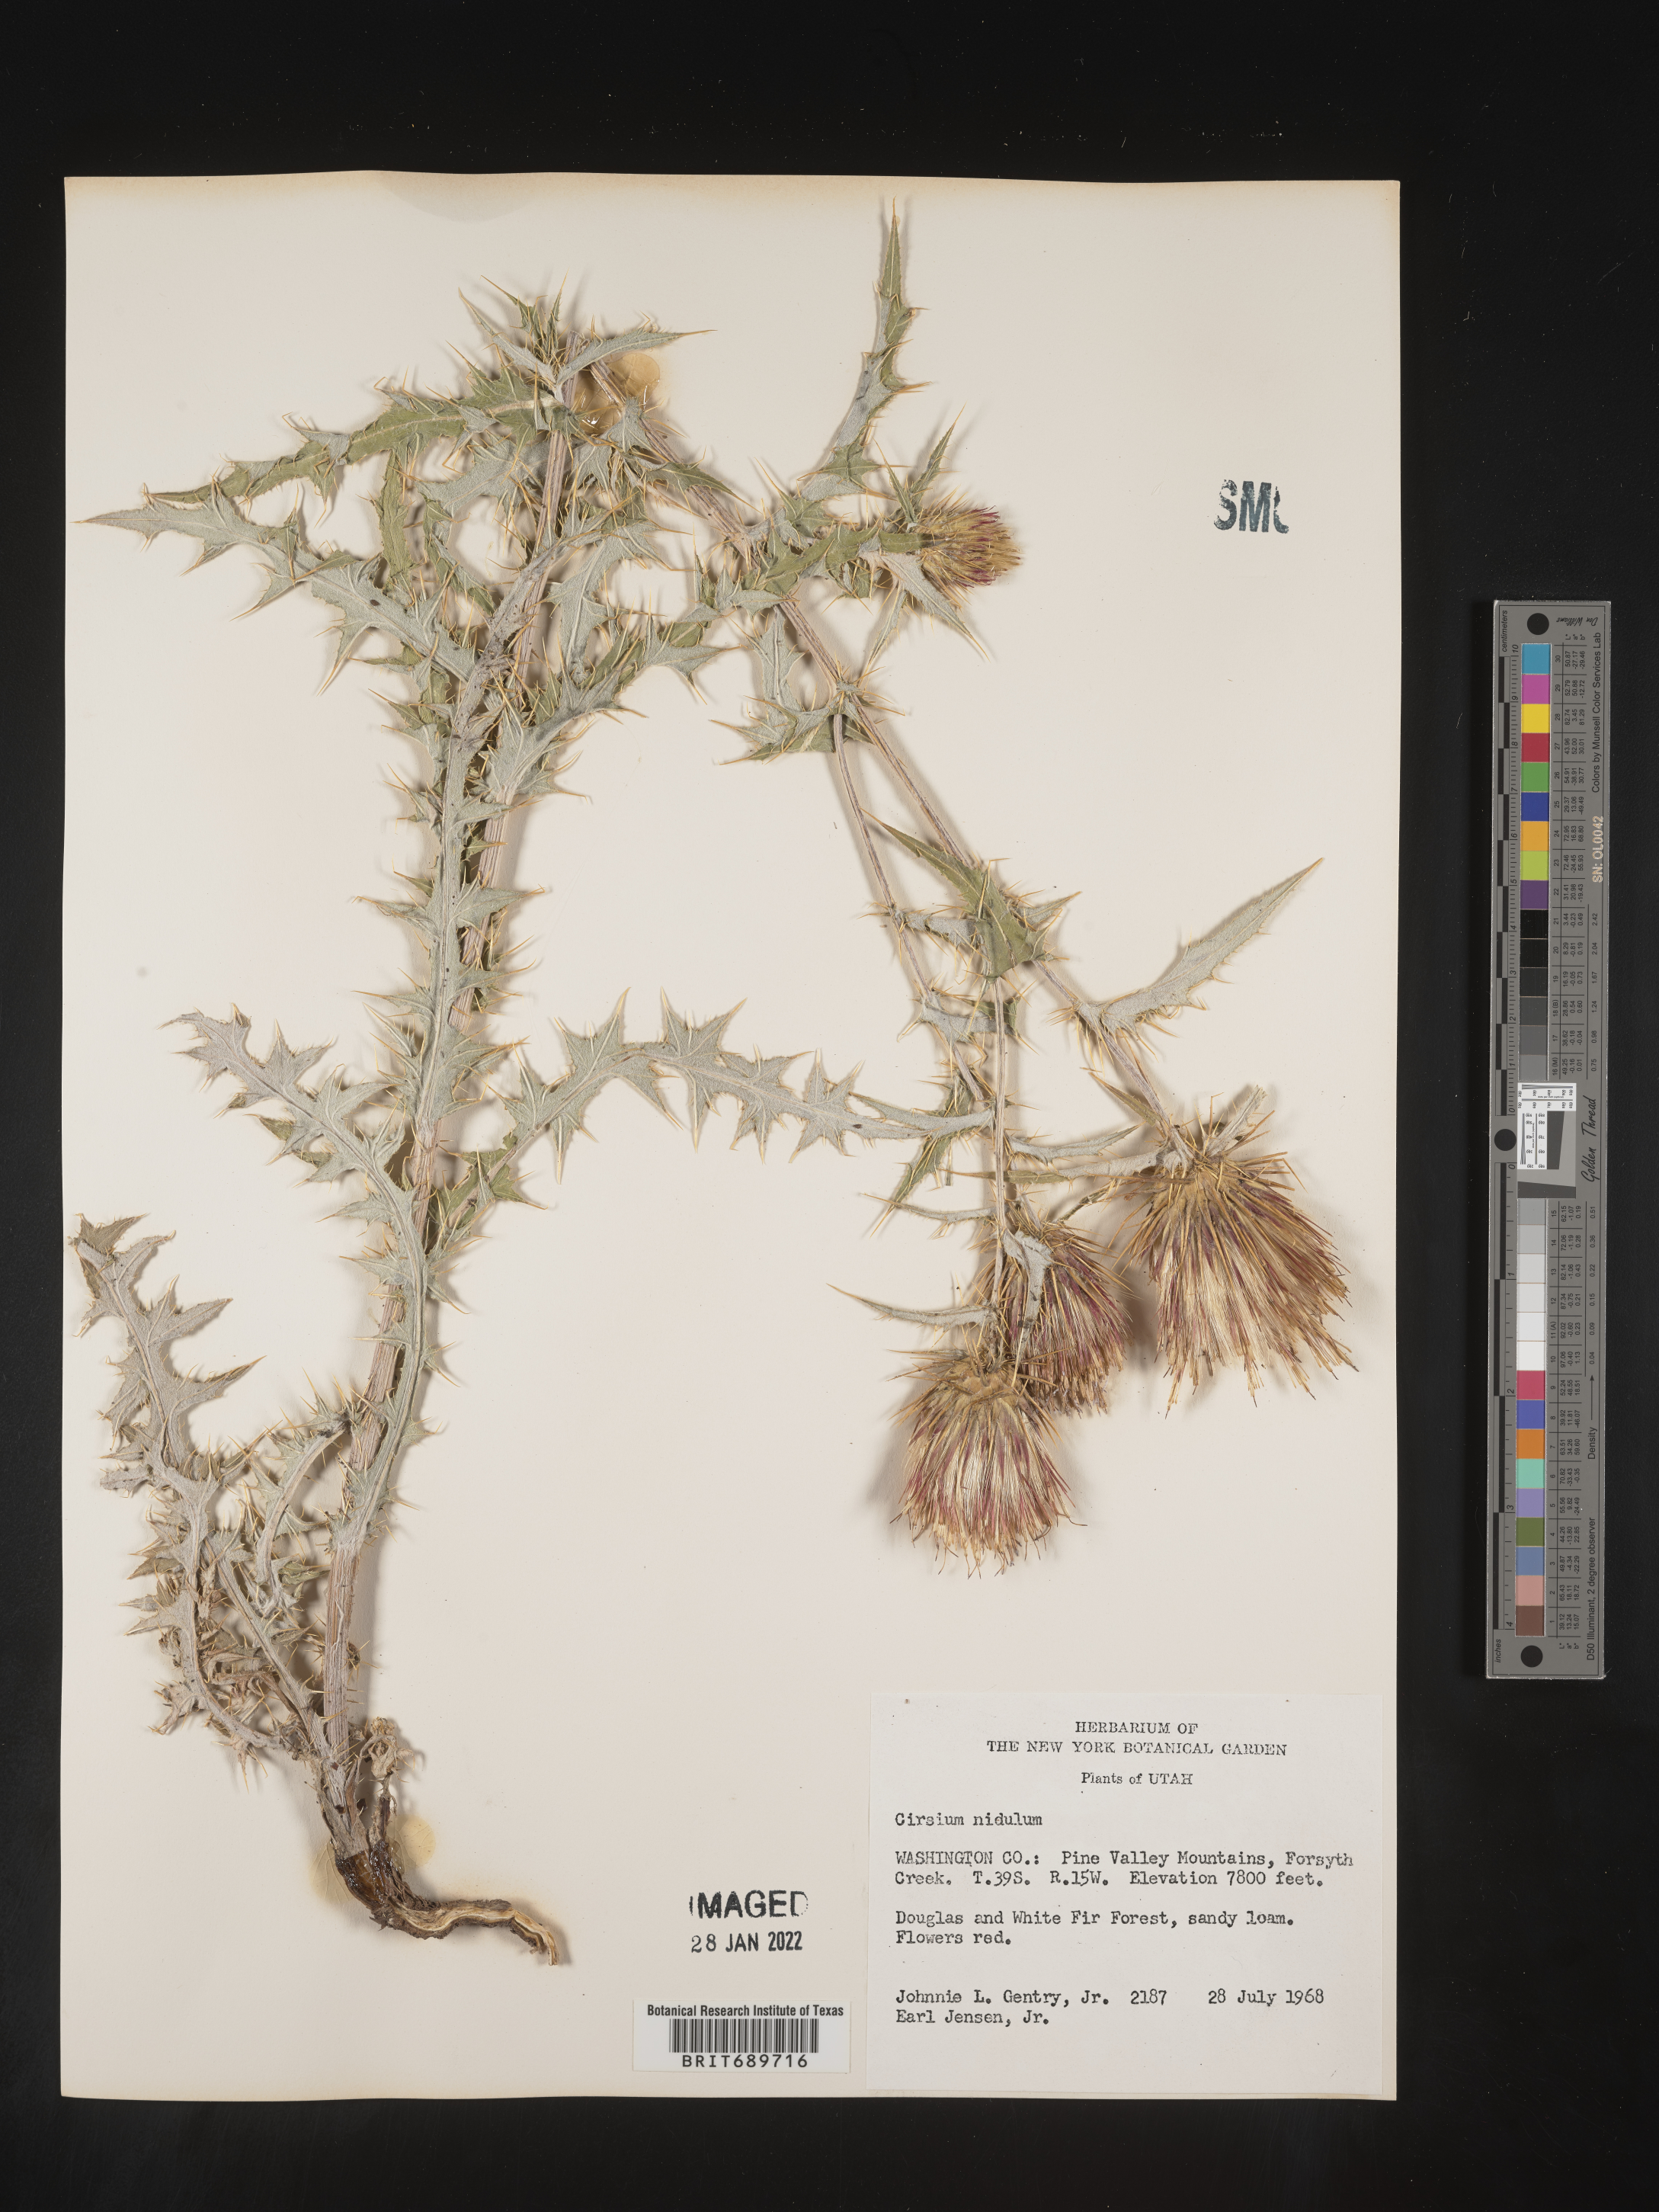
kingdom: Plantae
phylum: Tracheophyta
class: Magnoliopsida
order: Asterales
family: Asteraceae
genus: Cirsium
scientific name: Cirsium
